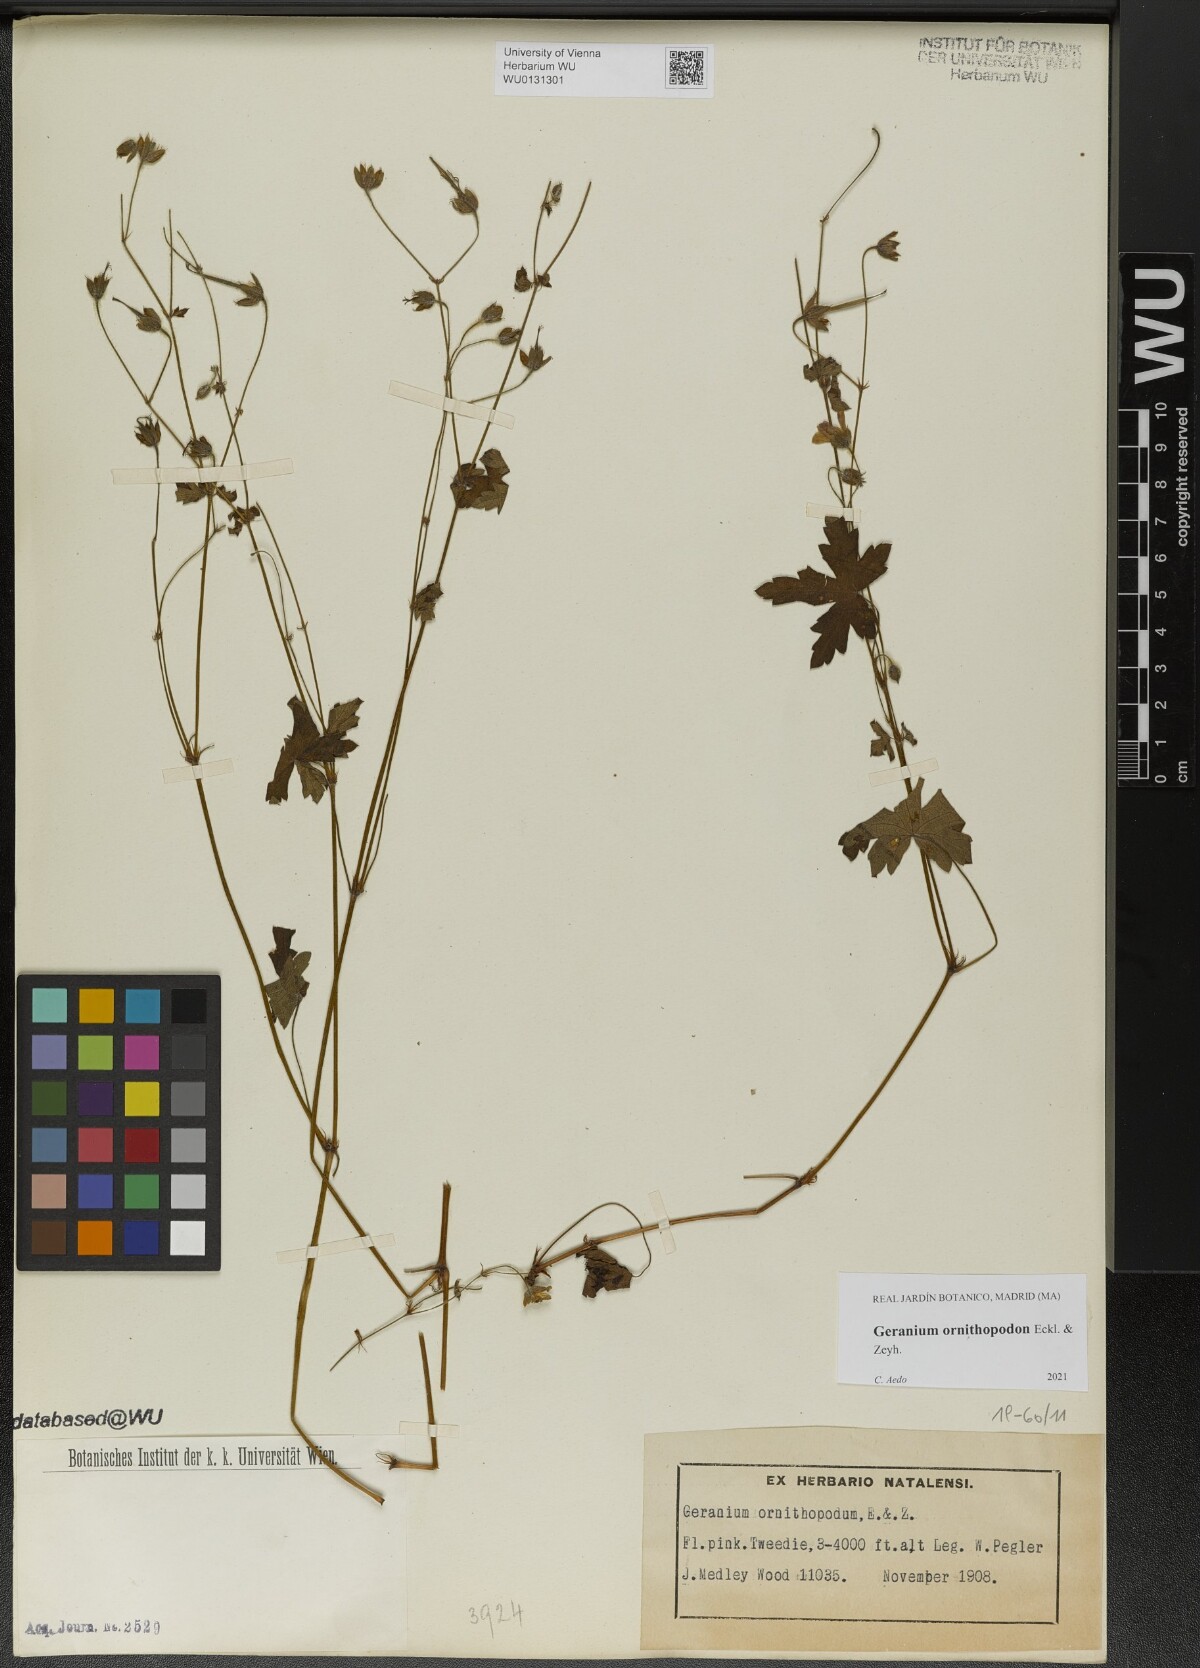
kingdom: Plantae
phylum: Tracheophyta
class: Magnoliopsida
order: Geraniales
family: Geraniaceae
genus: Geranium
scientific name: Geranium ornithopodon
